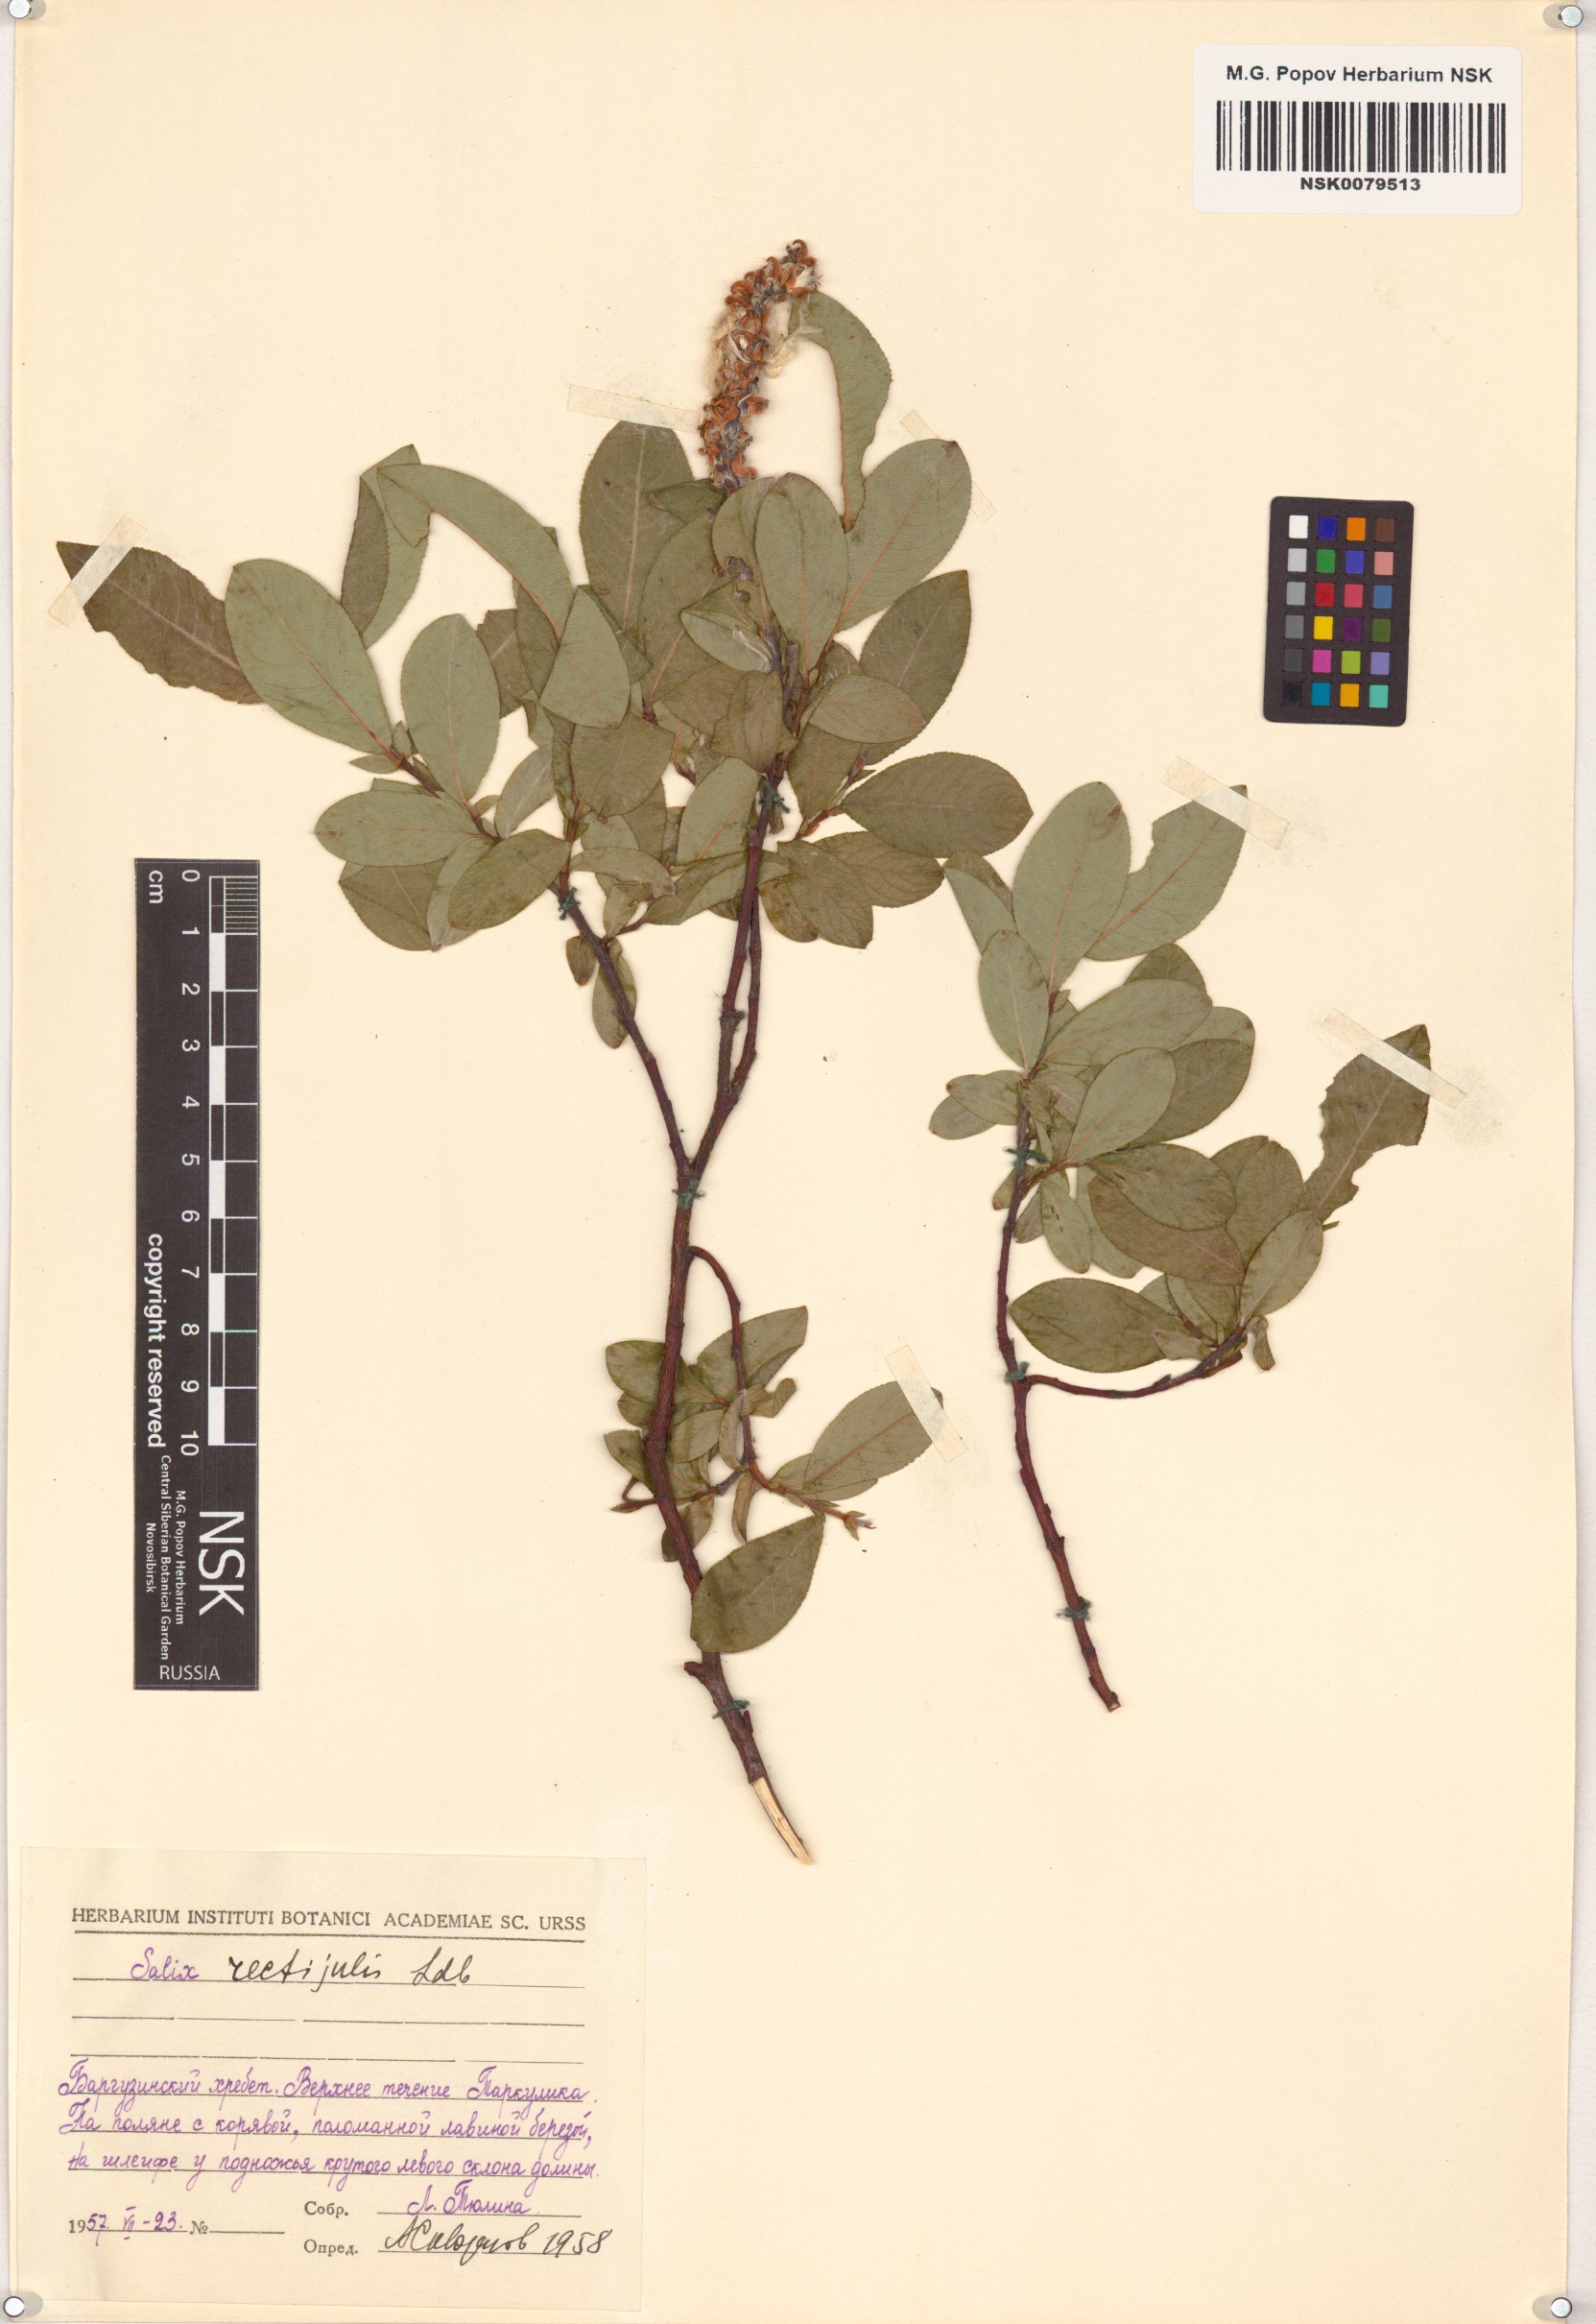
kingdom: Plantae
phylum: Tracheophyta
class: Magnoliopsida
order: Malpighiales
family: Salicaceae
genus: Salix
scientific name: Salix rectijulis
